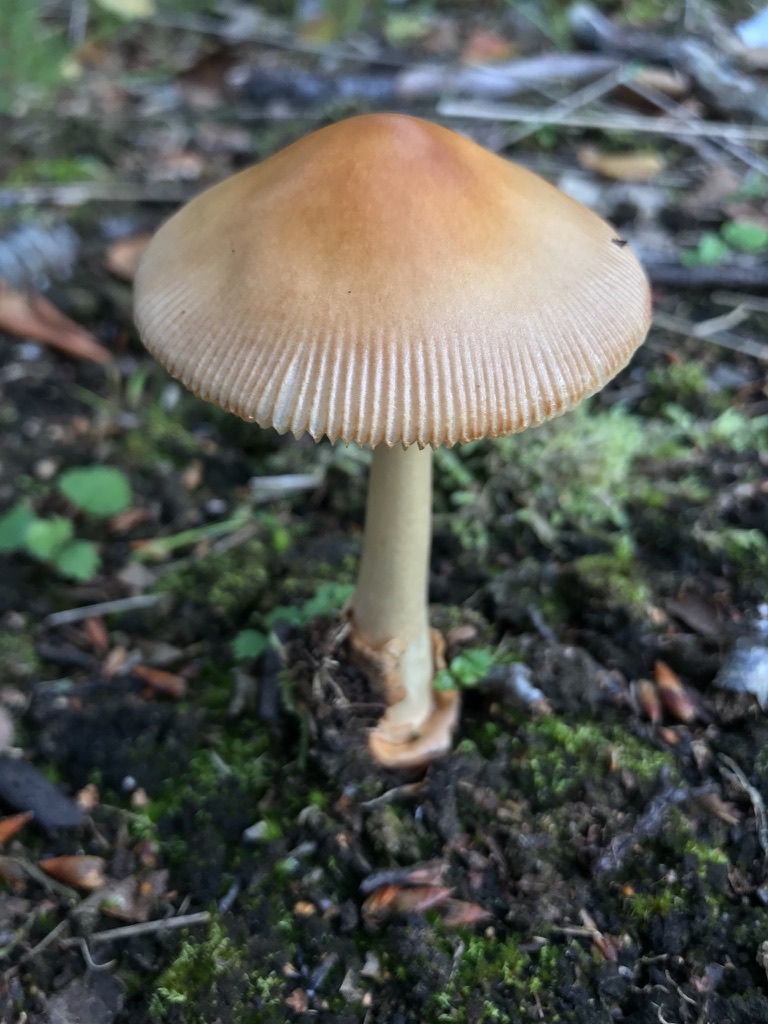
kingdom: Fungi
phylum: Basidiomycota
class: Agaricomycetes
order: Agaricales
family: Amanitaceae
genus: Amanita
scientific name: Amanita fulva
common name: brun kam-fluesvamp
